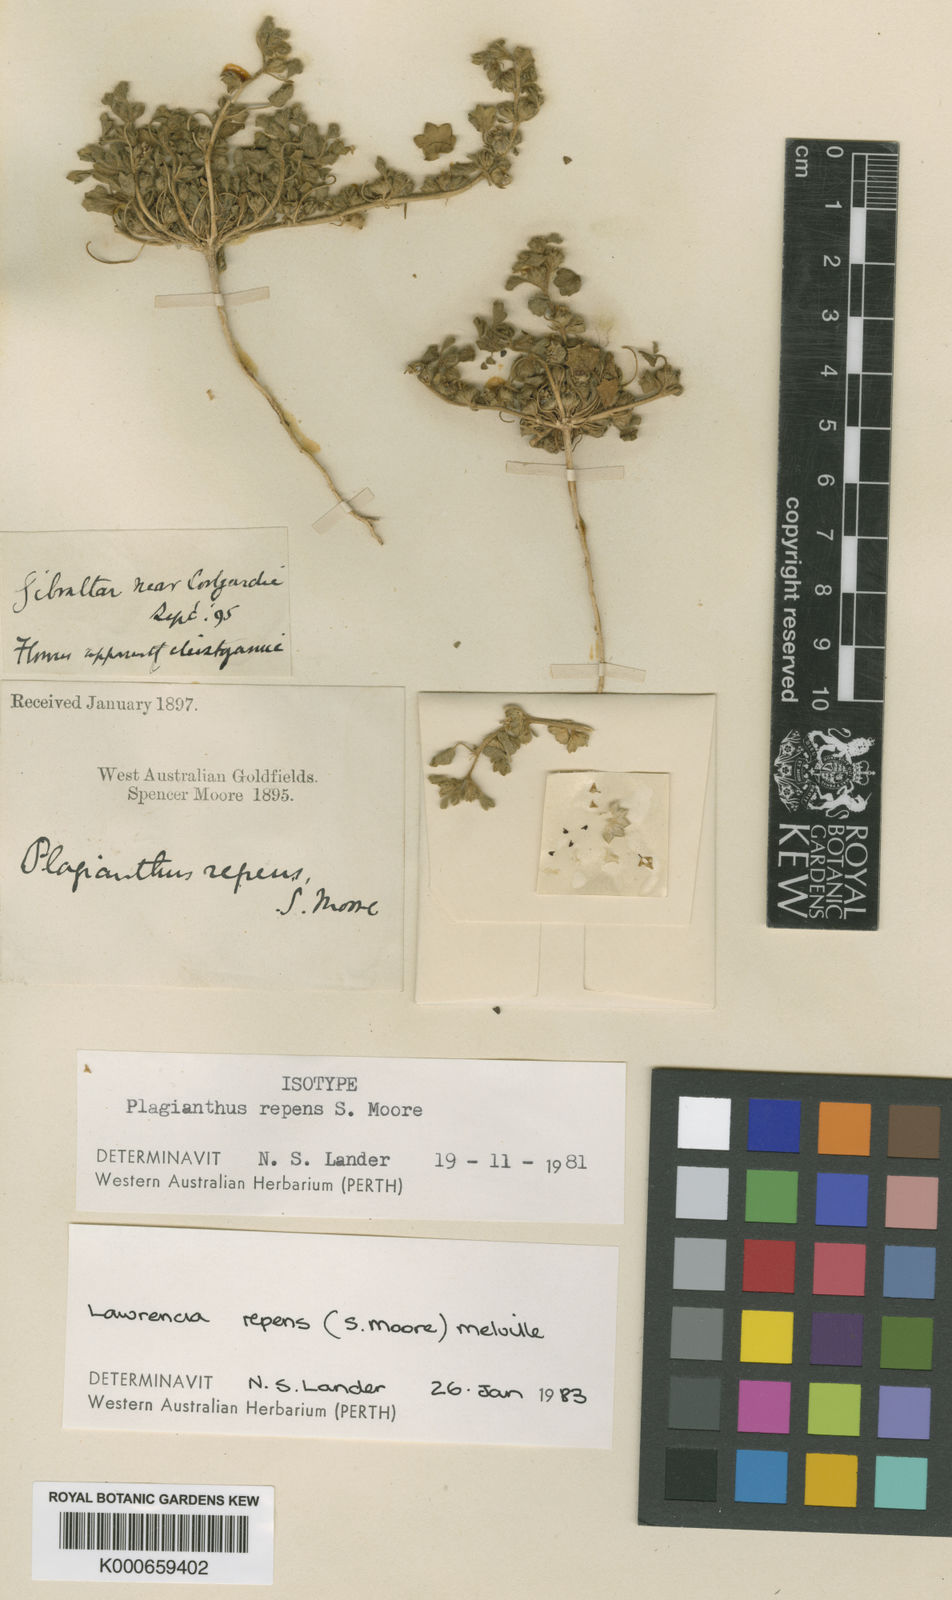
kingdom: Plantae
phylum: Tracheophyta
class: Magnoliopsida
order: Malvales
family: Malvaceae
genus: Lawrencia
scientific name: Lawrencia repens
